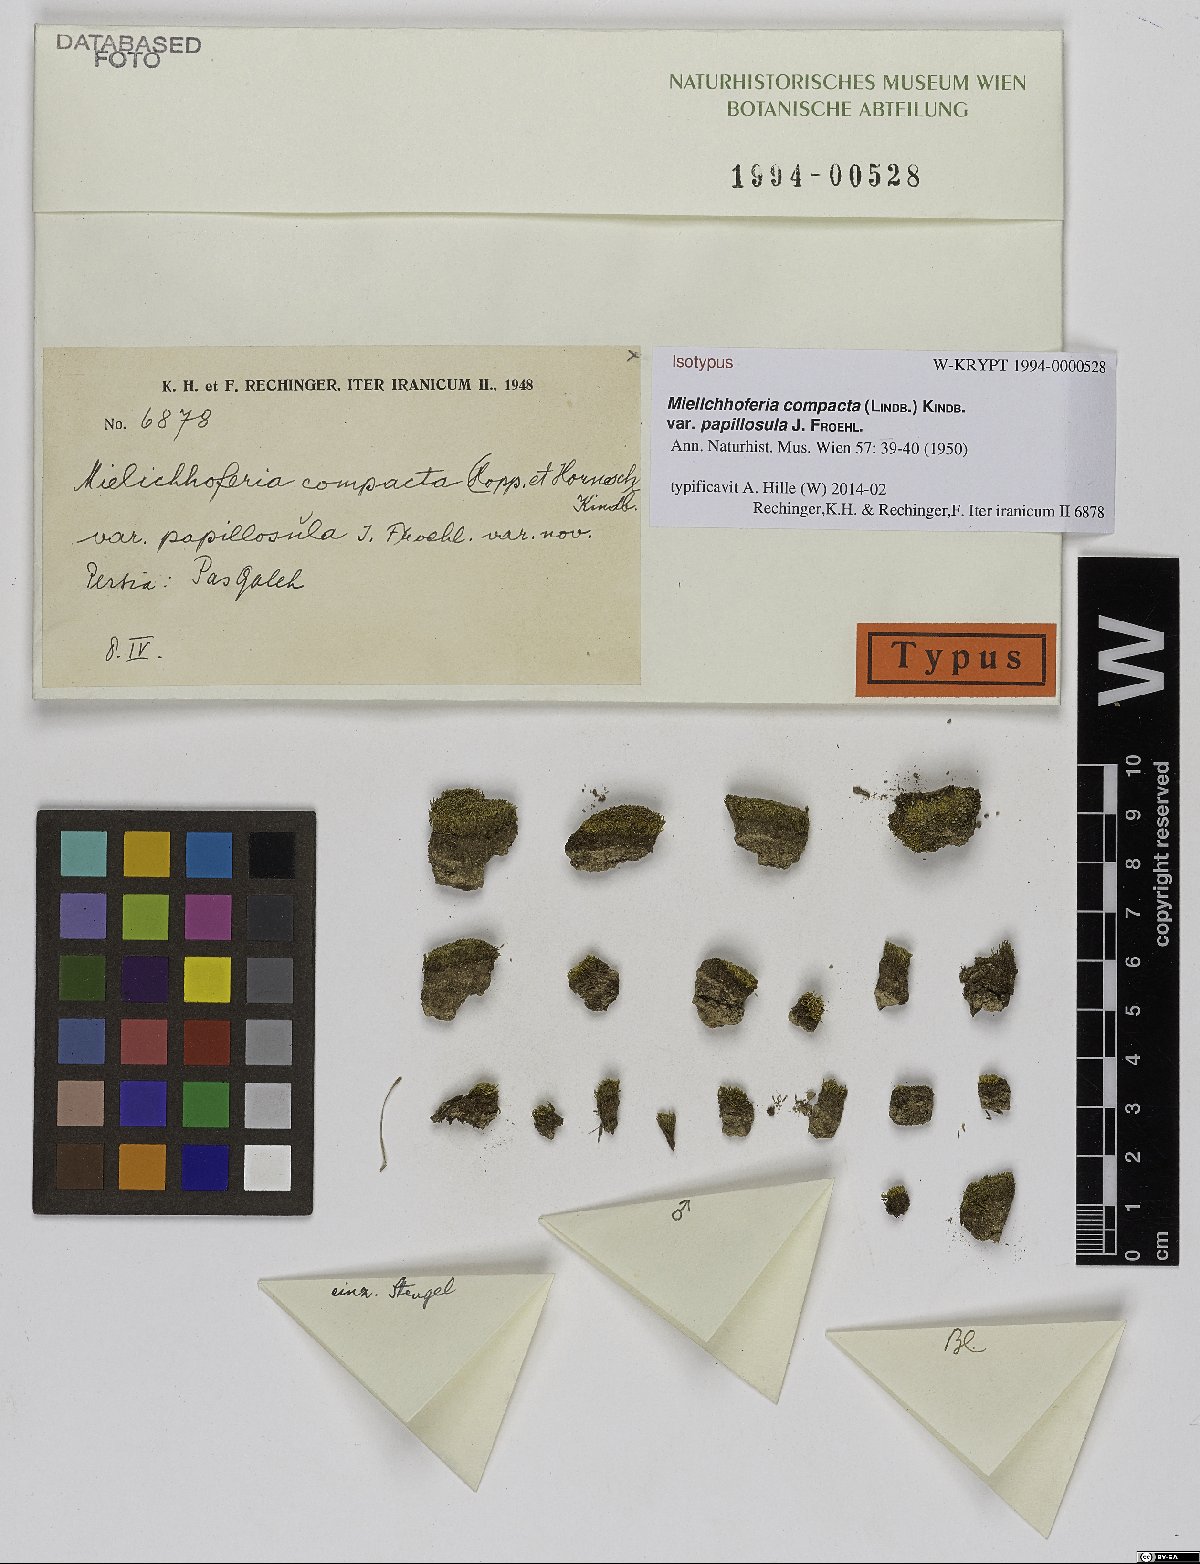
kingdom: Plantae
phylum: Bryophyta
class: Bryopsida
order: Bryales
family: Mniaceae
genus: Mielichhoferia
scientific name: Mielichhoferia mielichhoferiana
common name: Alpine copper-moss
